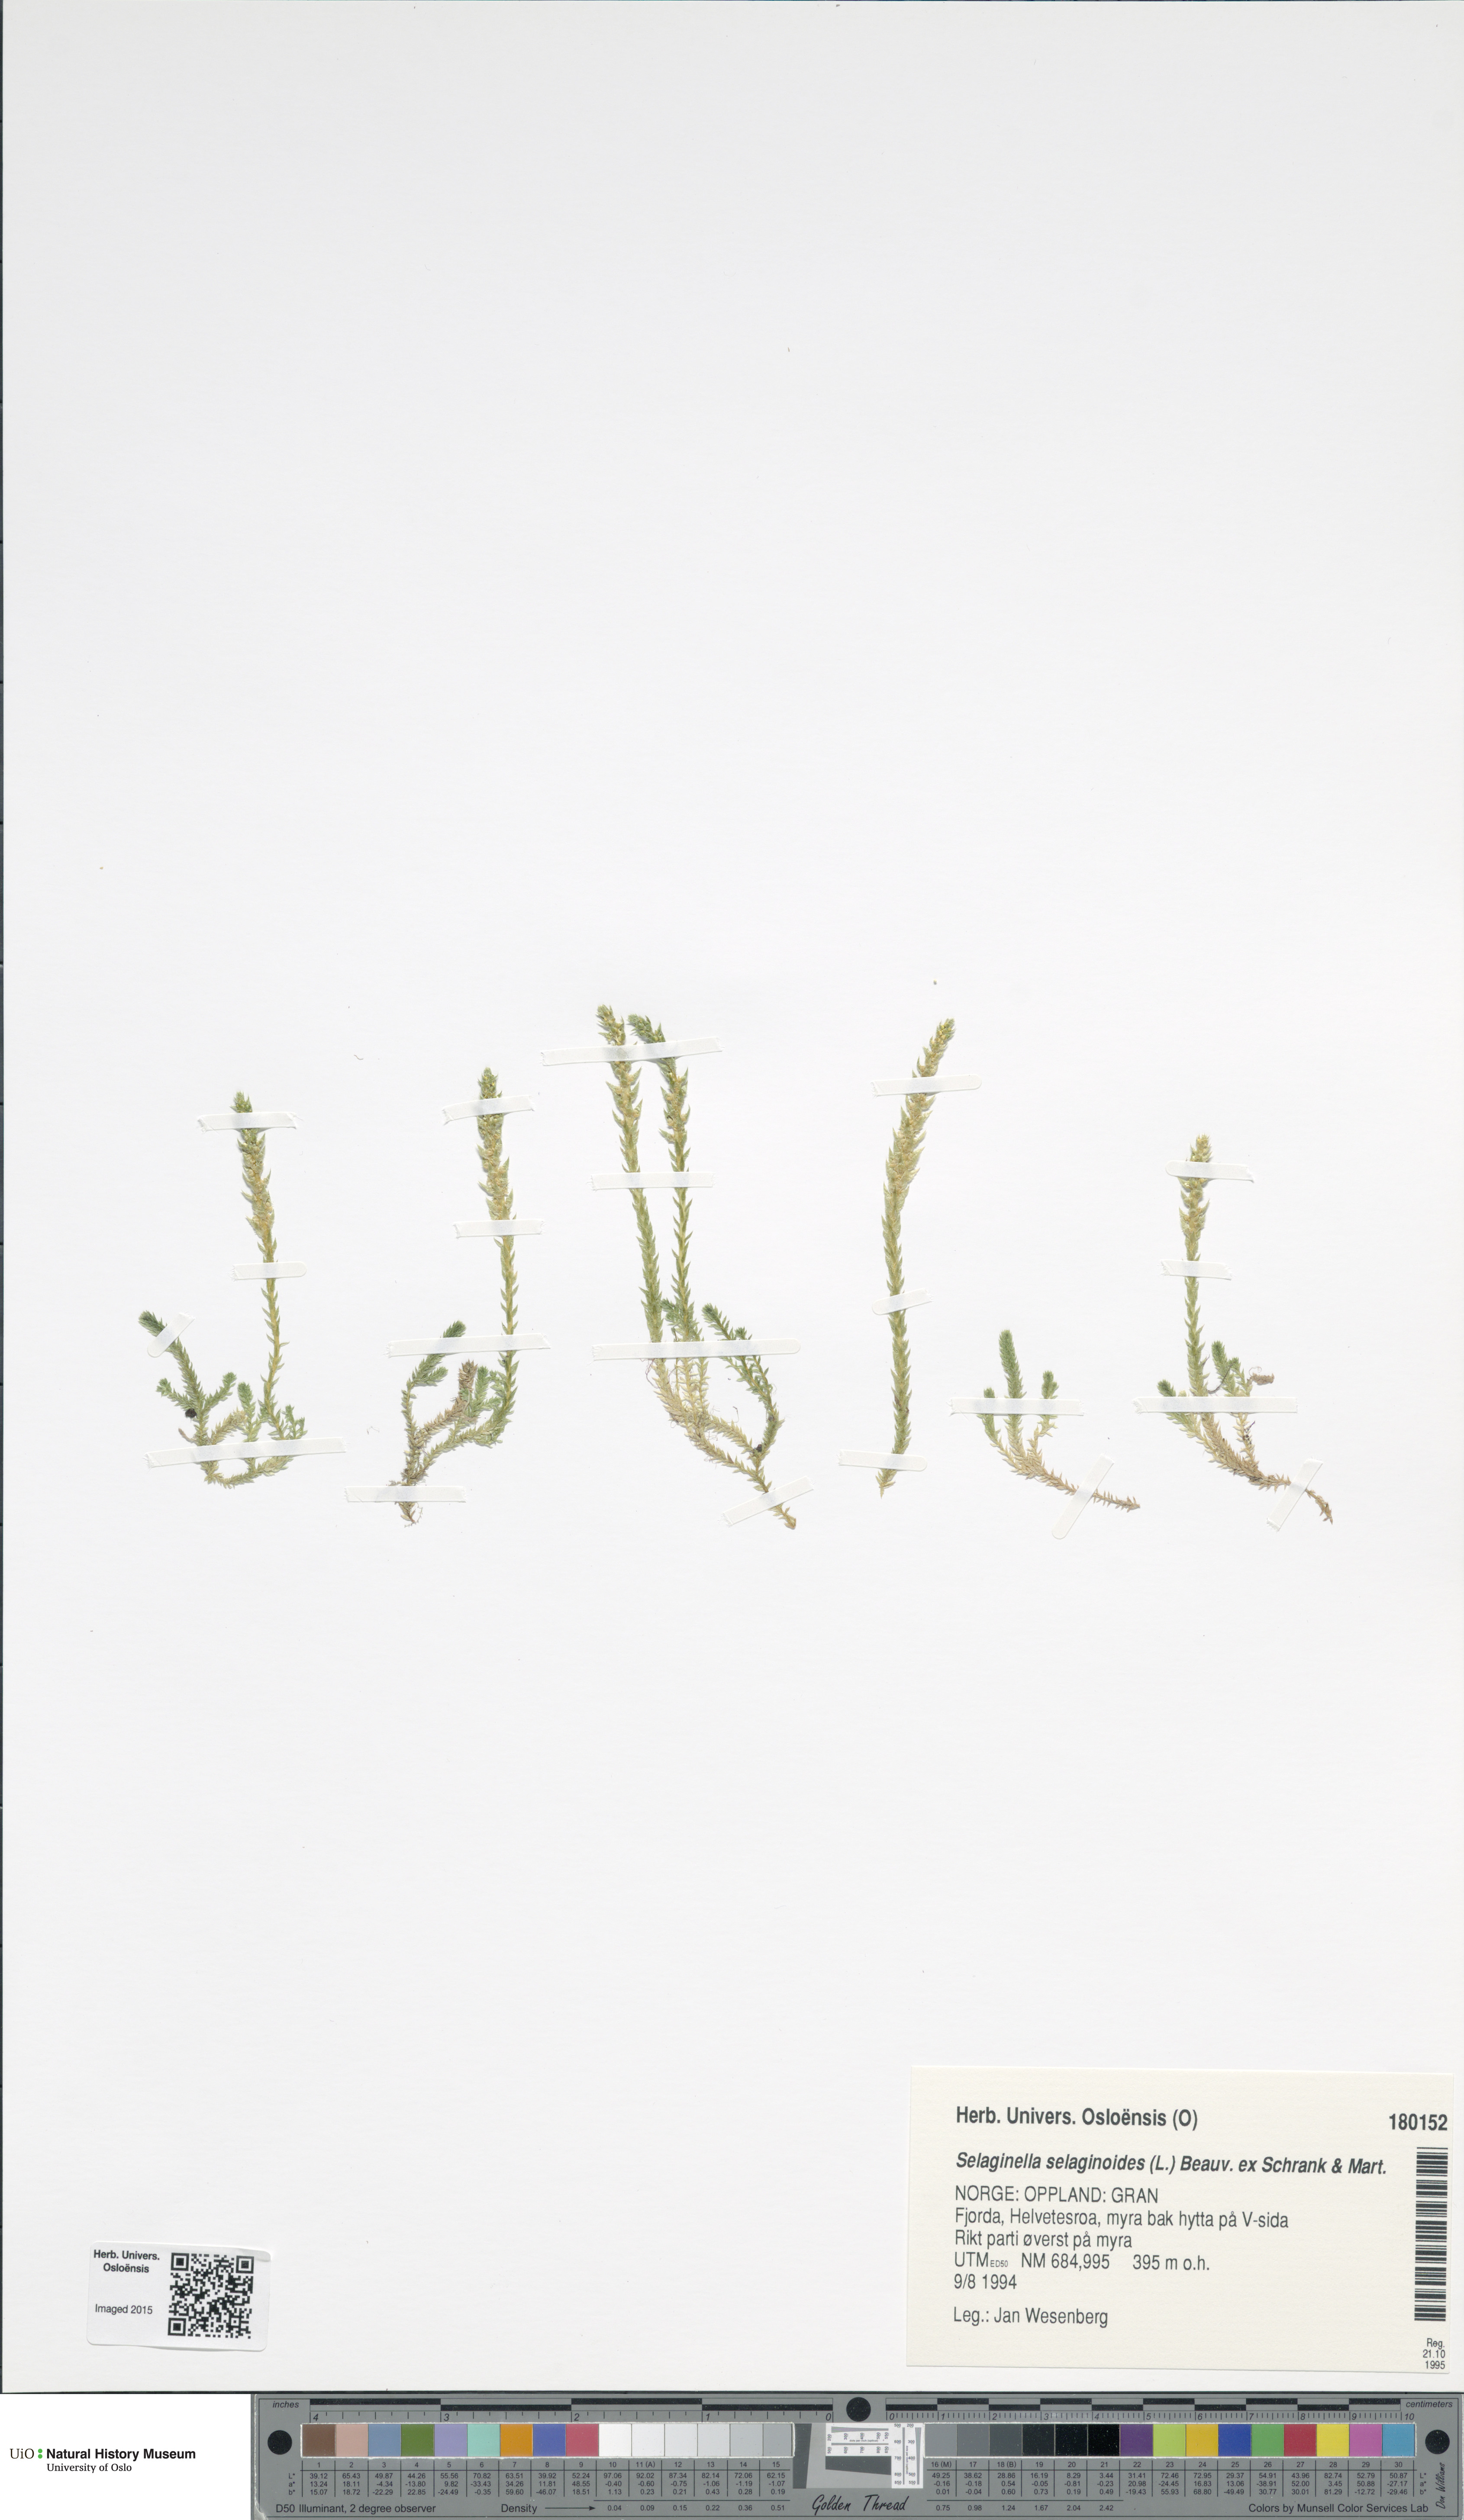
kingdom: Plantae
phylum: Tracheophyta
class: Lycopodiopsida
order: Selaginellales
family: Selaginellaceae
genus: Selaginella
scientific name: Selaginella selaginoides
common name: Prickly mountain-moss
